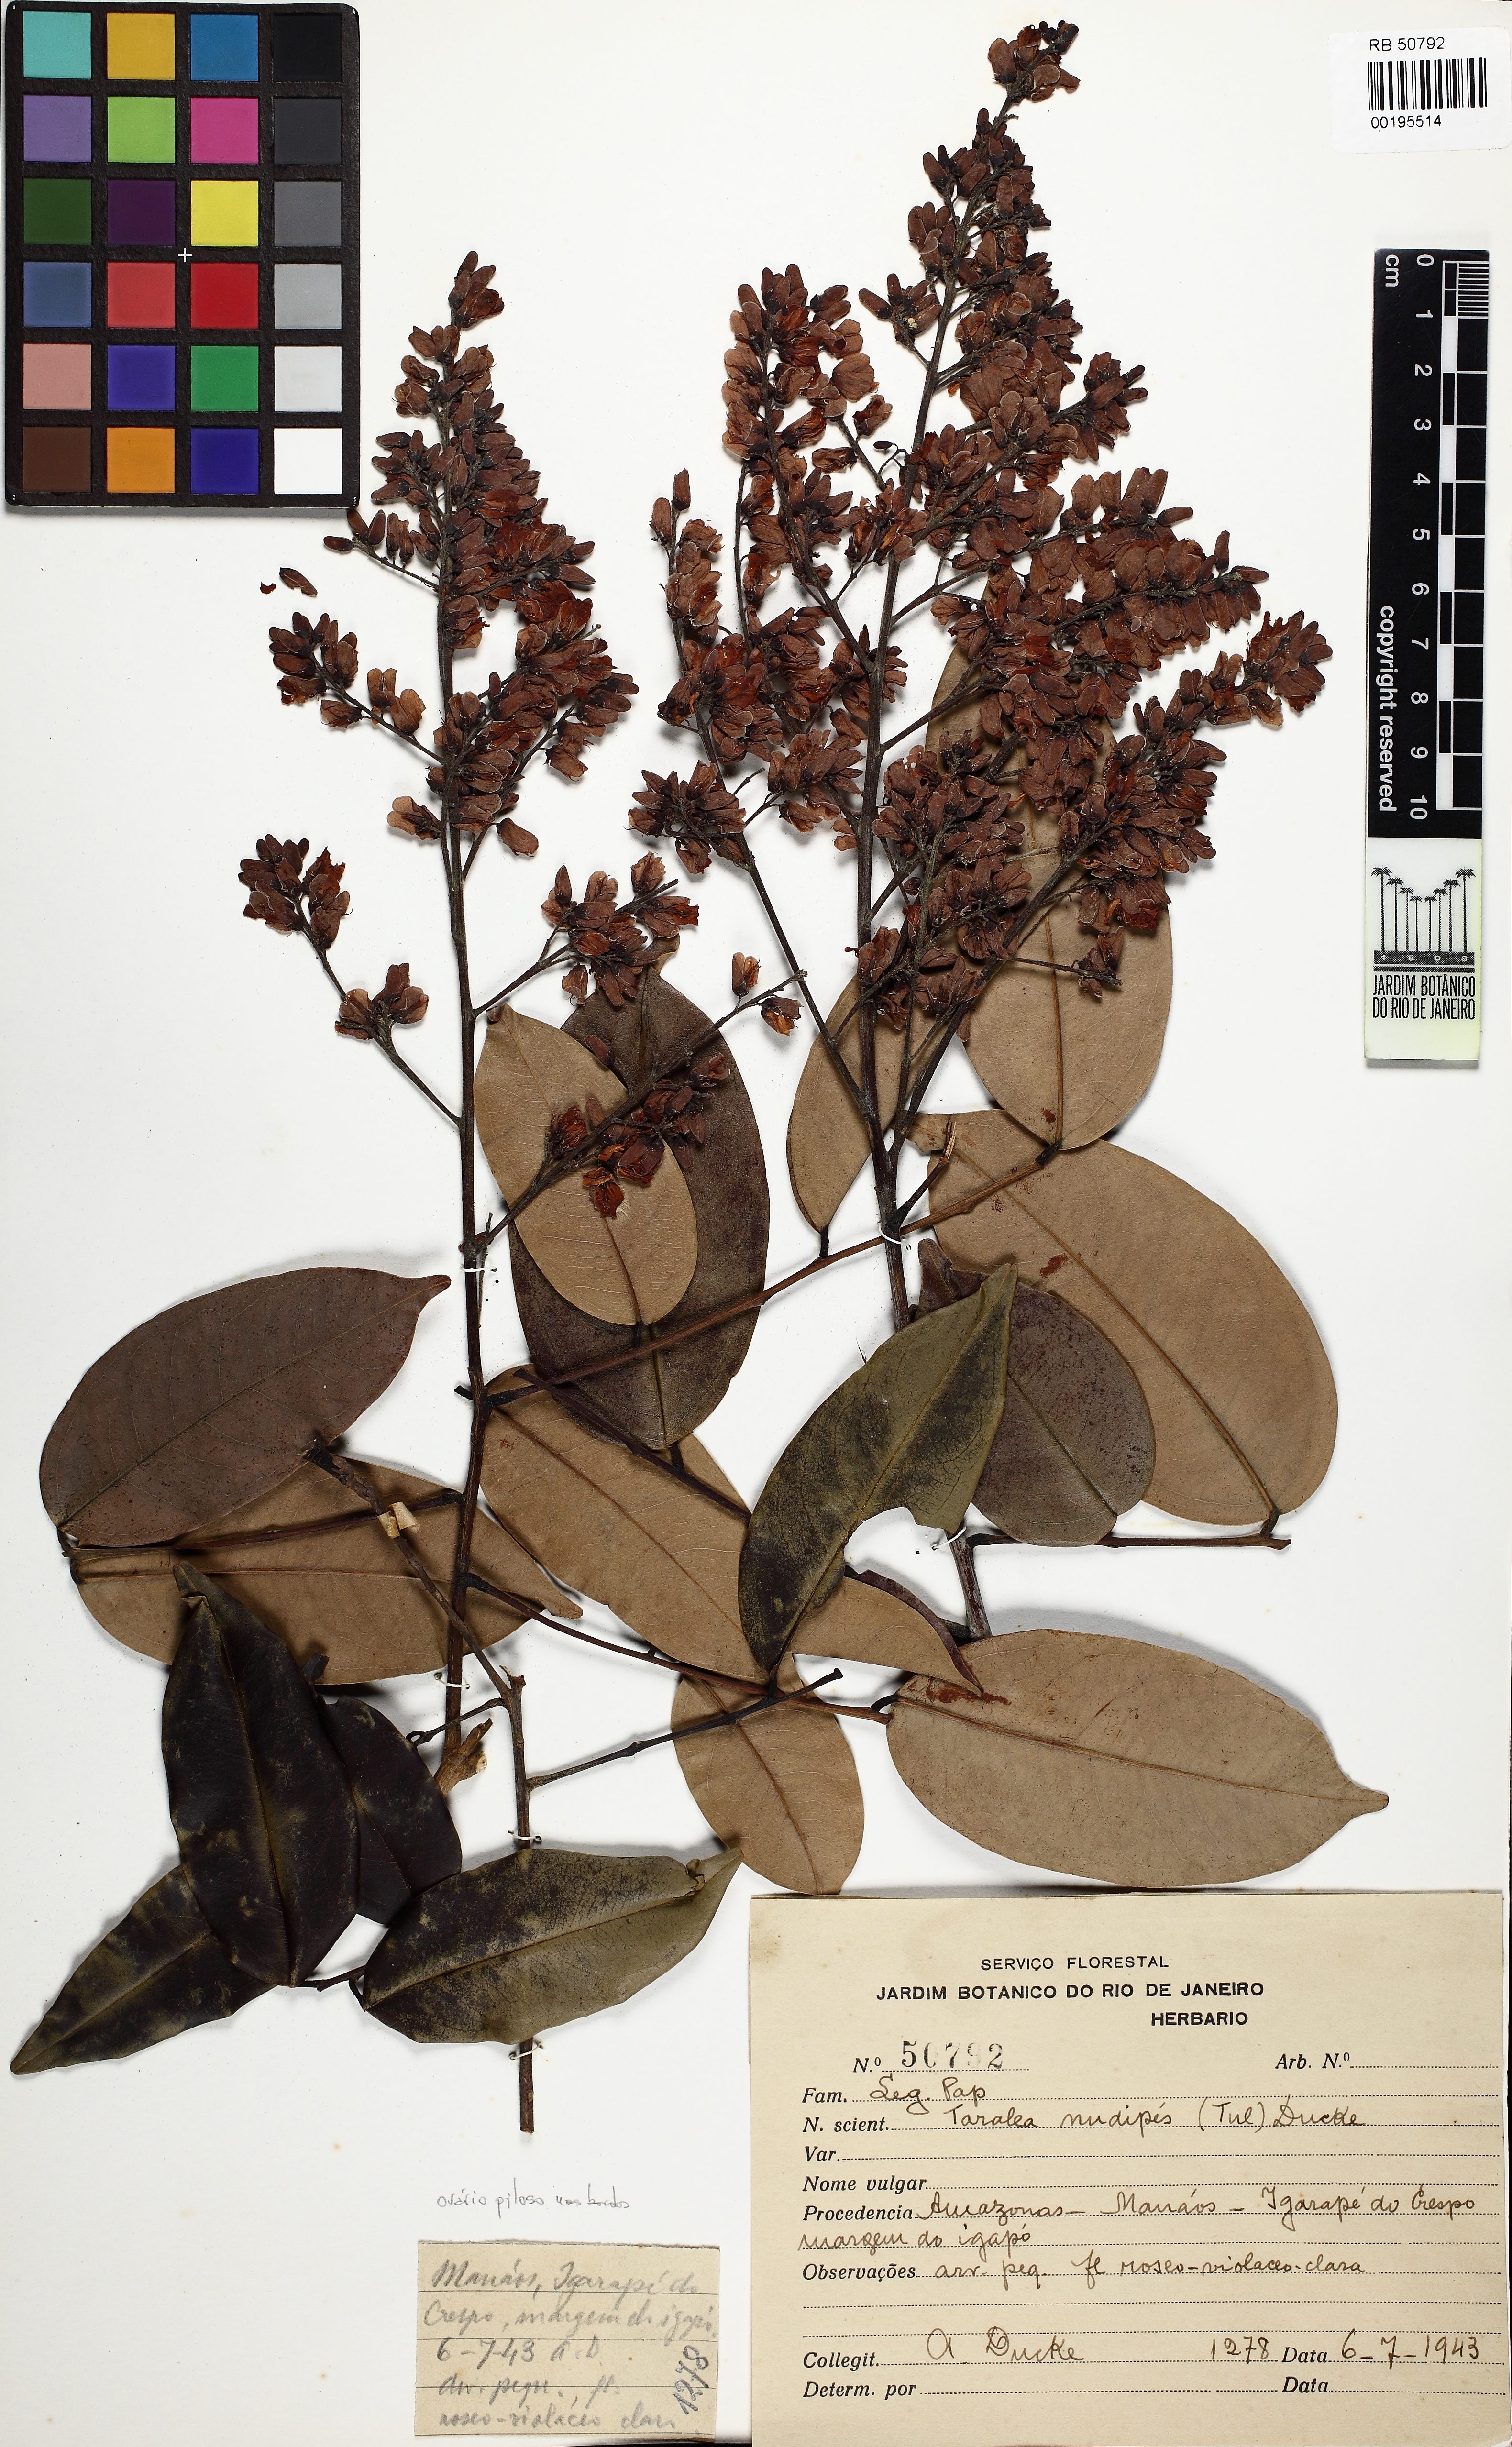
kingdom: Plantae
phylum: Tracheophyta
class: Magnoliopsida
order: Fabales
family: Fabaceae
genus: Taralea
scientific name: Taralea nudipes
